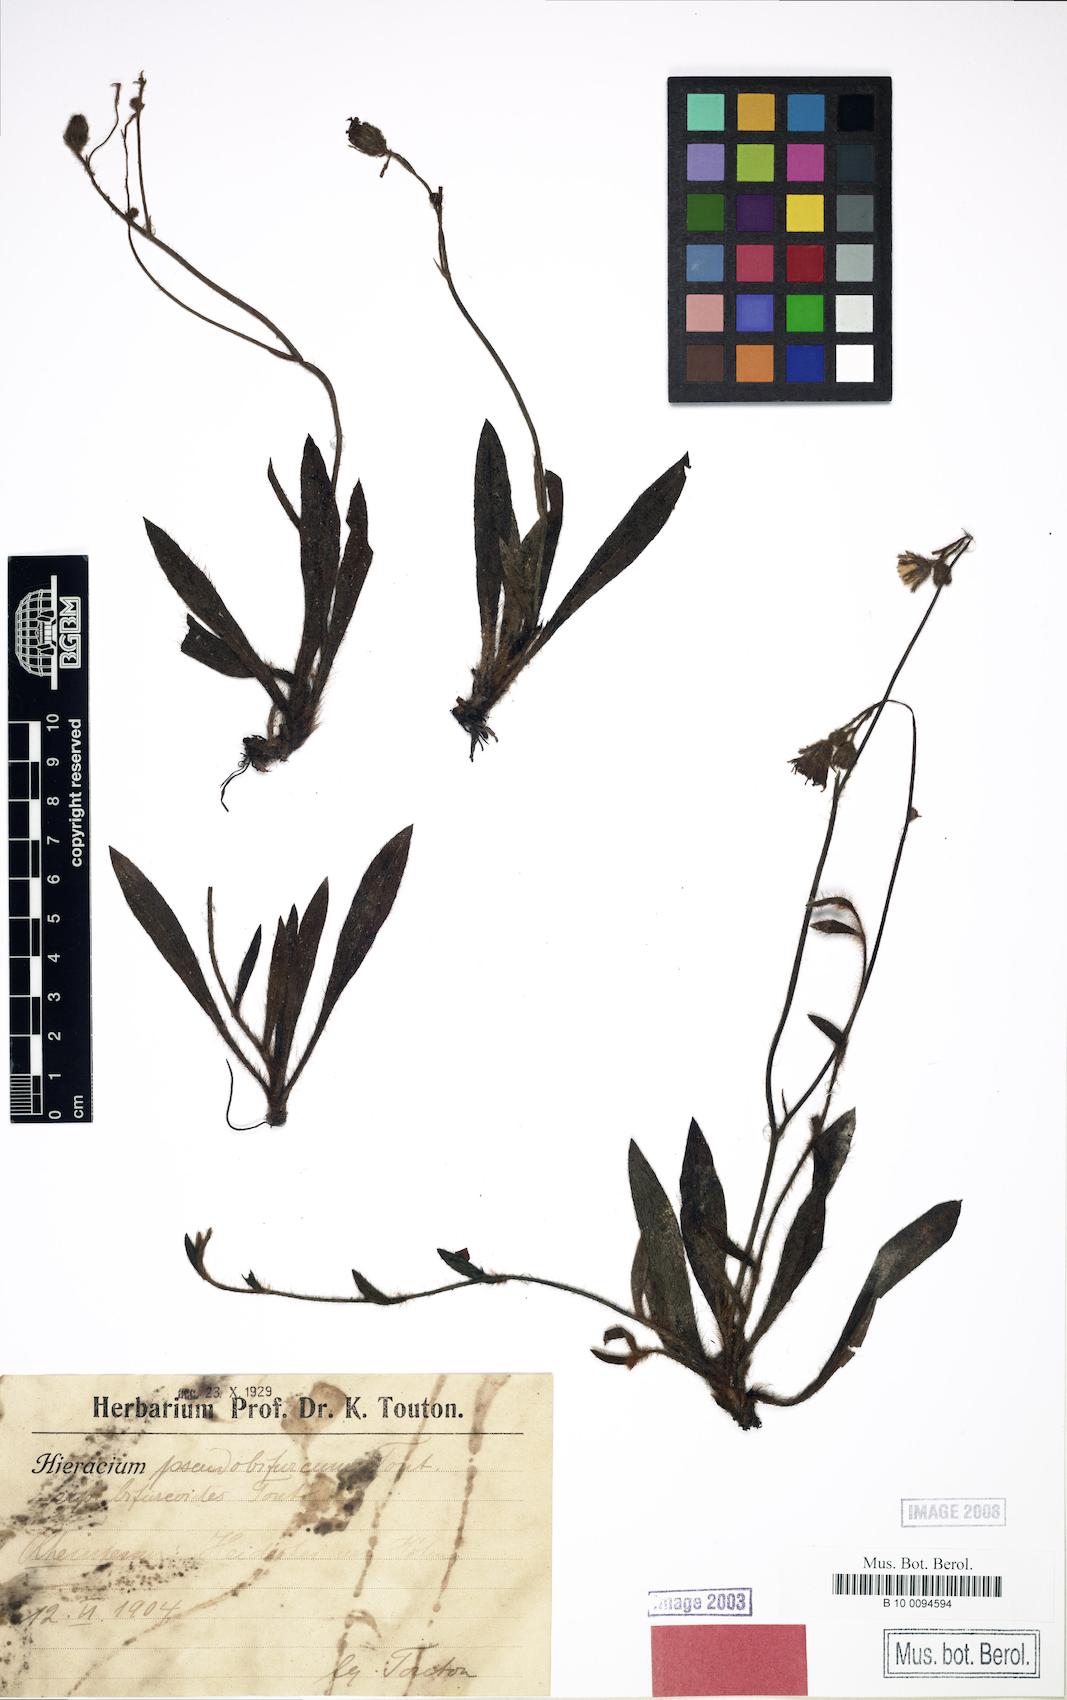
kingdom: Plantae
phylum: Tracheophyta
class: Magnoliopsida
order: Asterales
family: Asteraceae
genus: Pilosella
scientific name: Pilosella cinereiformis
